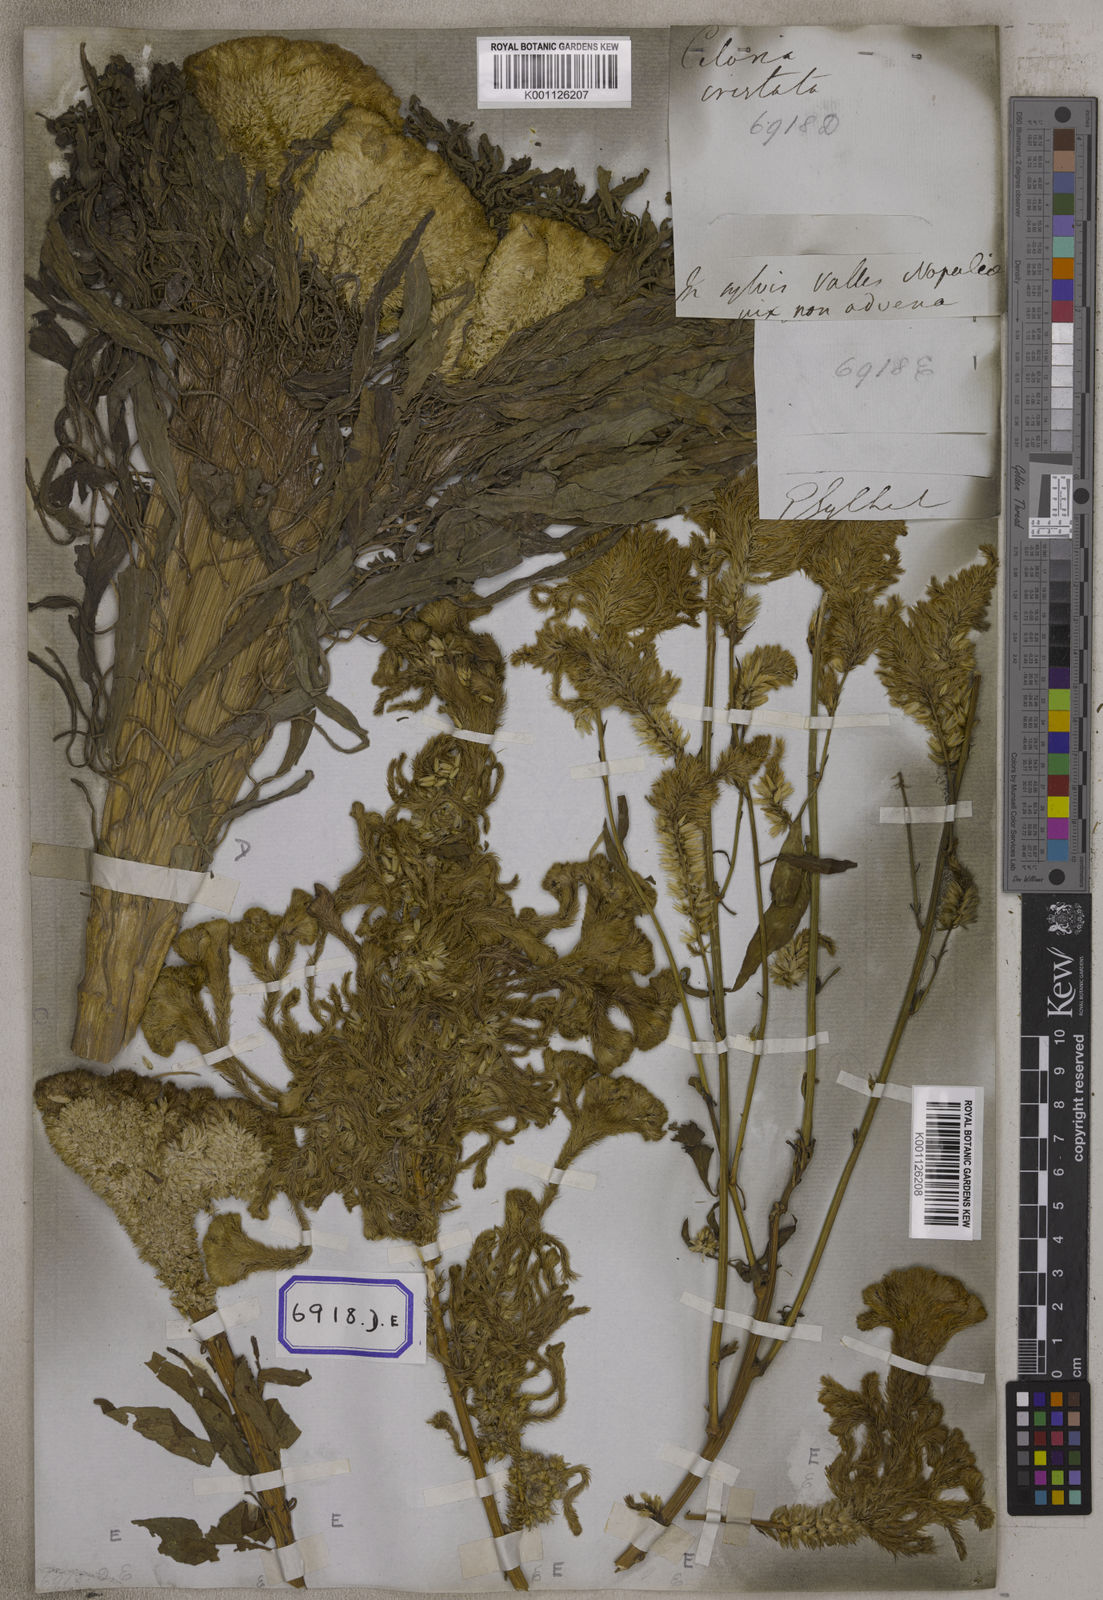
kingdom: Plantae
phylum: Tracheophyta
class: Magnoliopsida
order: Caryophyllales
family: Amaranthaceae
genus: Celosia
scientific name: Celosia argentea
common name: Feather cockscomb
